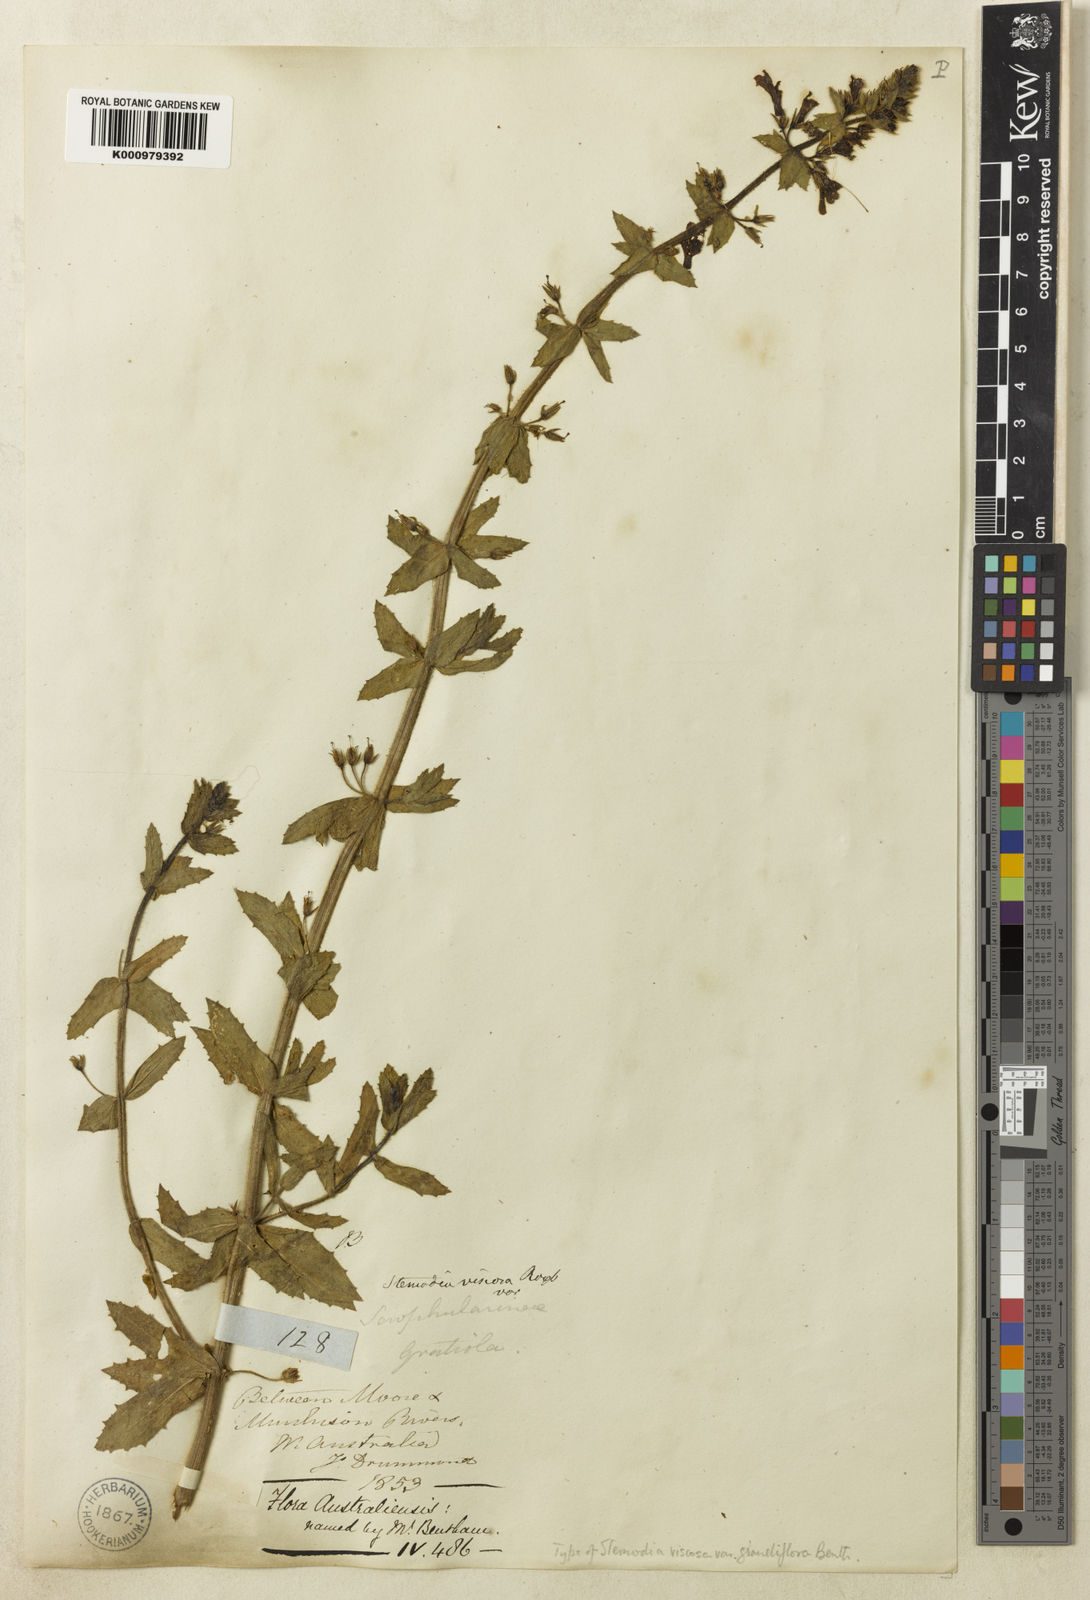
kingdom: Plantae
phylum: Tracheophyta
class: Magnoliopsida
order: Lamiales
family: Plantaginaceae
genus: Stemodia
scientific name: Stemodia viscosa
